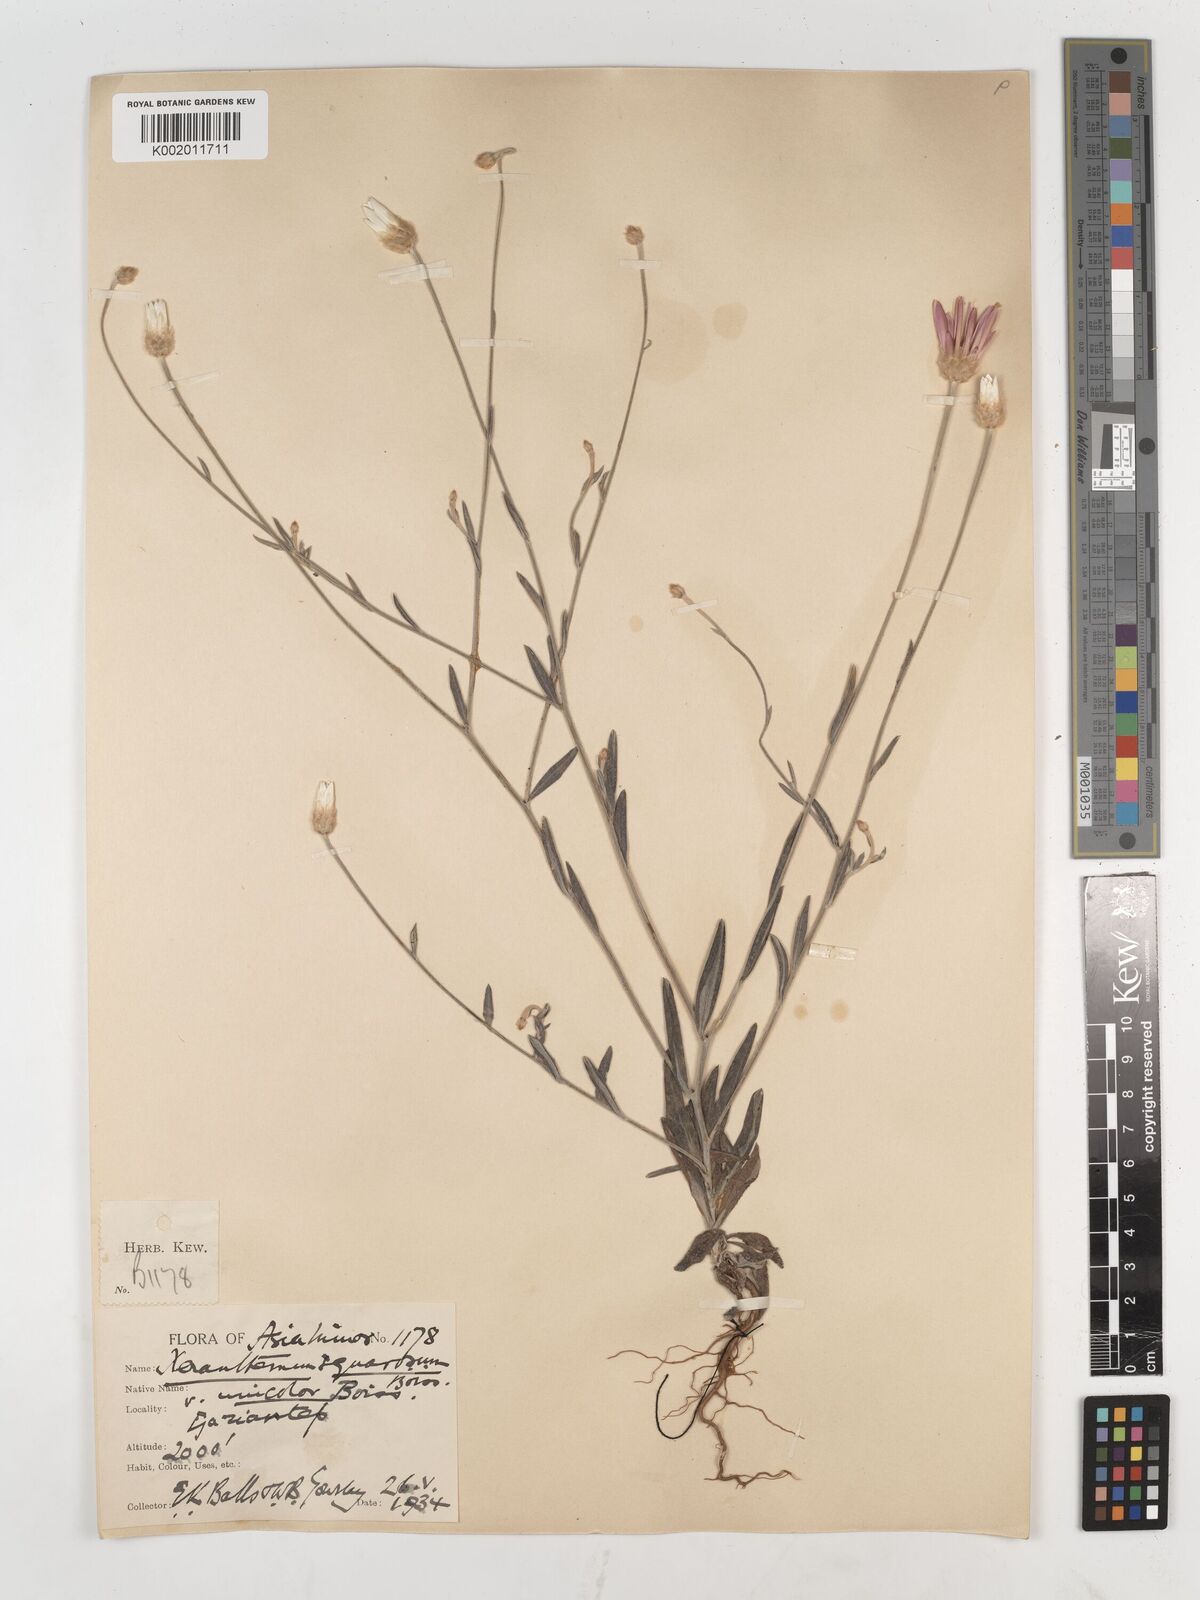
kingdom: Plantae
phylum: Tracheophyta
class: Magnoliopsida
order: Asterales
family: Asteraceae
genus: Xeranthemum
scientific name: Xeranthemum squarrosum
